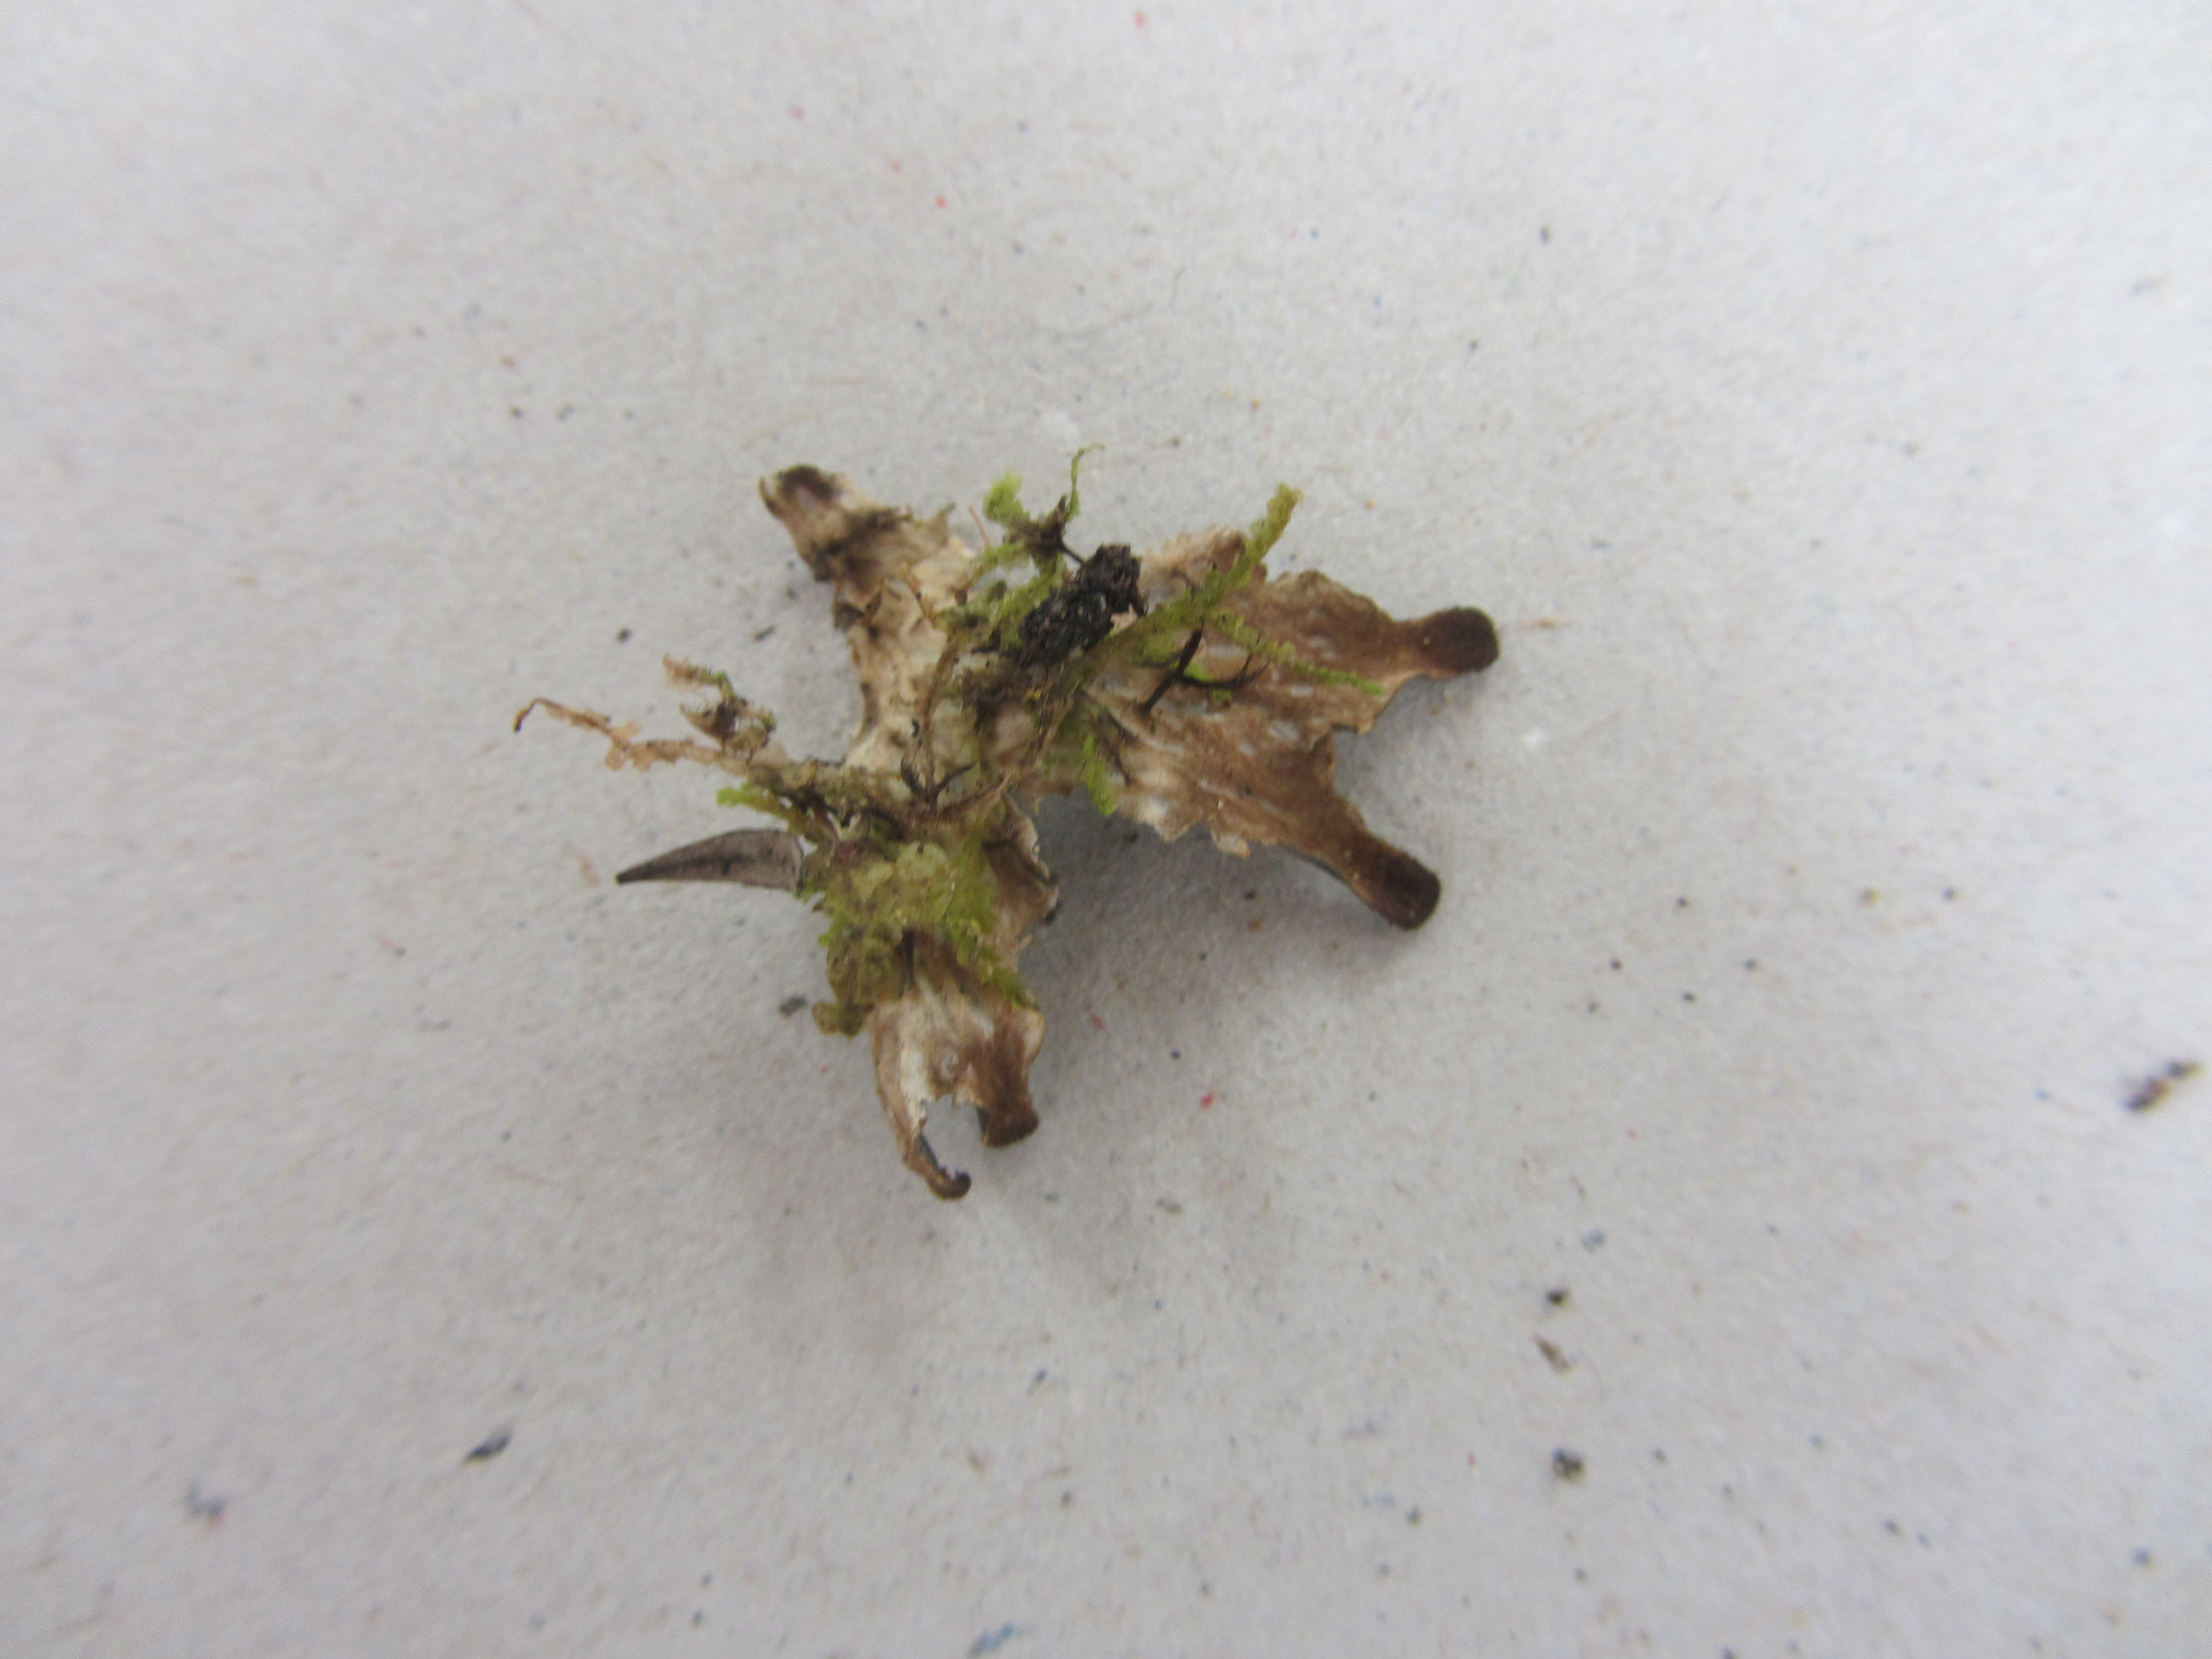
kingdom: Fungi
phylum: Ascomycota
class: Lecanoromycetes
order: Peltigerales
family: Peltigeraceae
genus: Peltigera
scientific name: Peltigera
